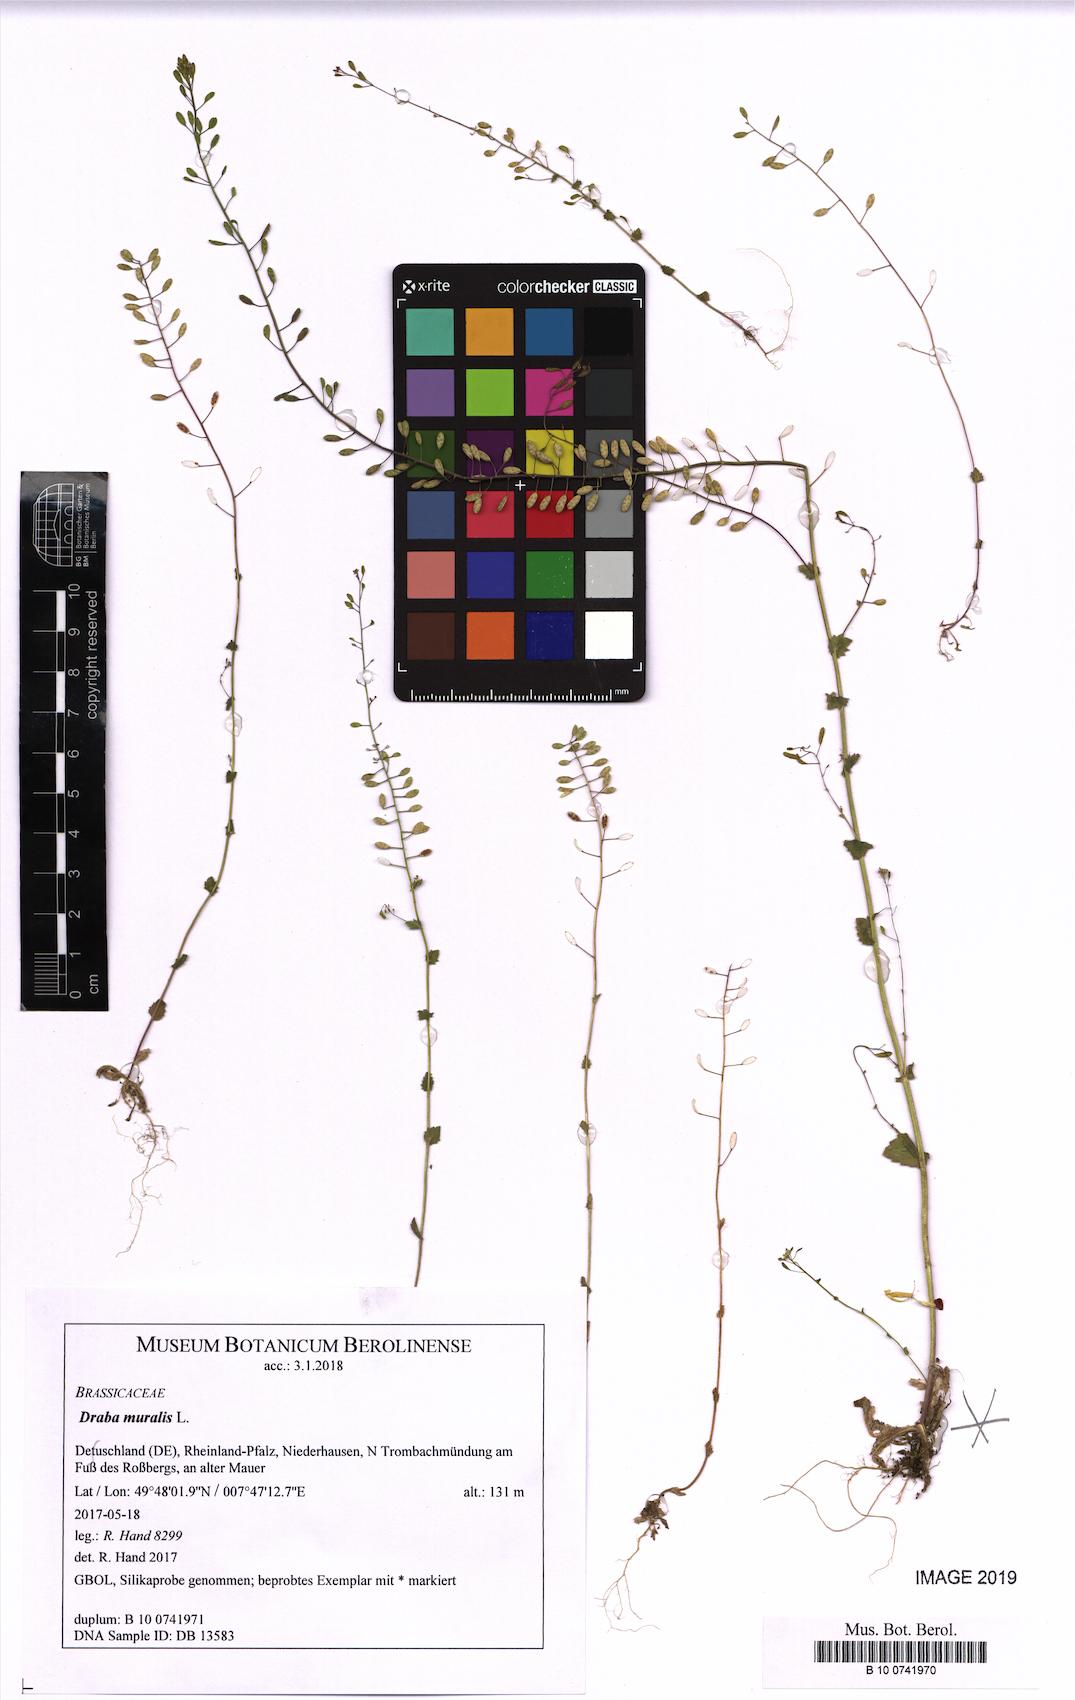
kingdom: Plantae
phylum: Tracheophyta
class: Magnoliopsida
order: Brassicales
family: Brassicaceae
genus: Drabella
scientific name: Drabella muralis
